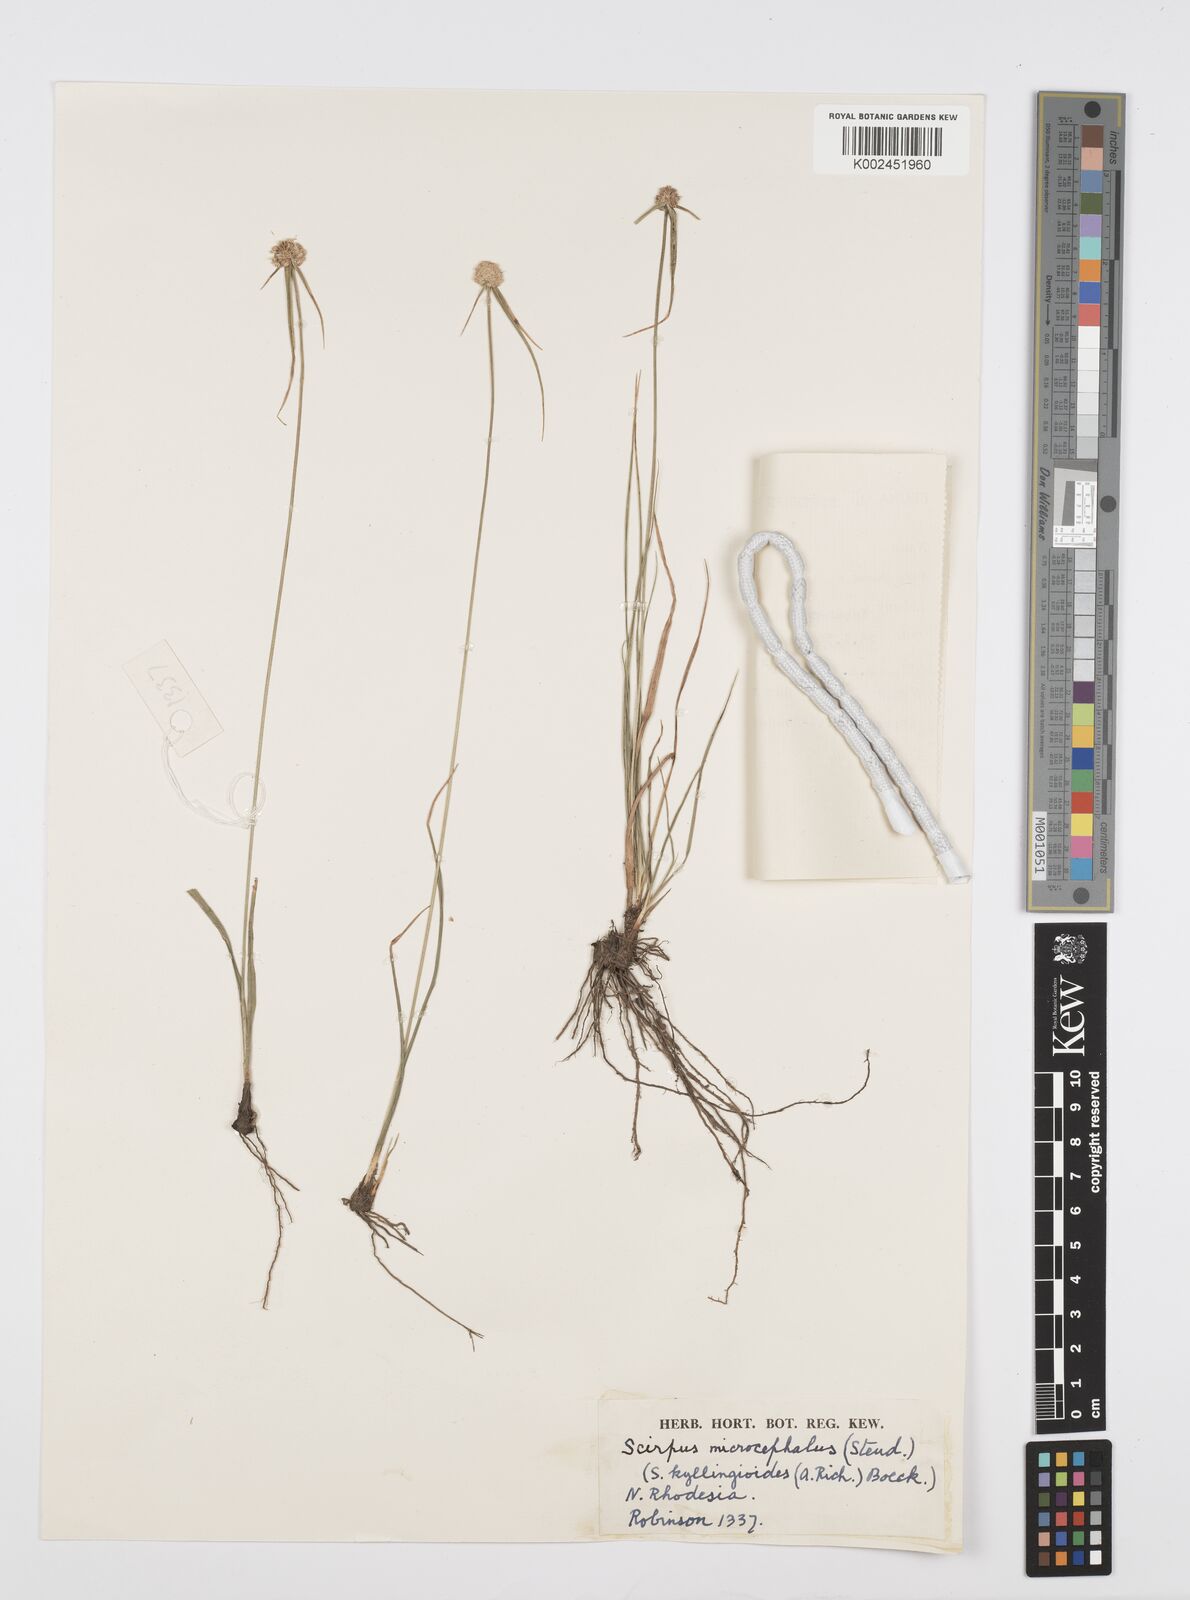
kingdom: Plantae
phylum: Tracheophyta
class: Liliopsida
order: Poales
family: Cyperaceae
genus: Cyperus
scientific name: Cyperus microcephalus
